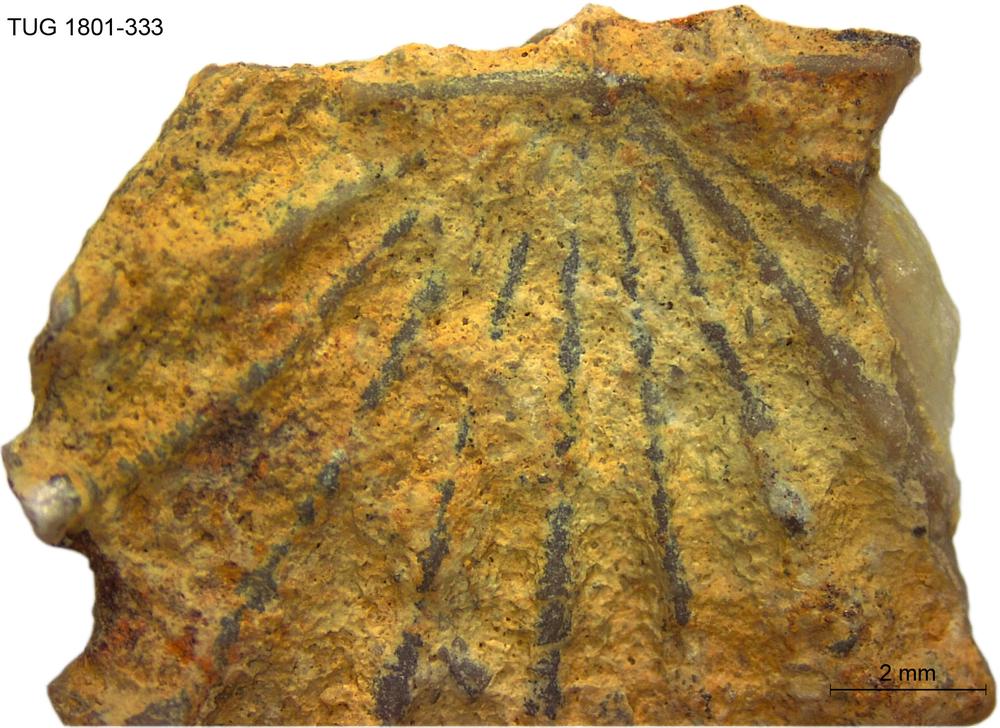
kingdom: Animalia
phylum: Brachiopoda
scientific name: Brachiopoda
